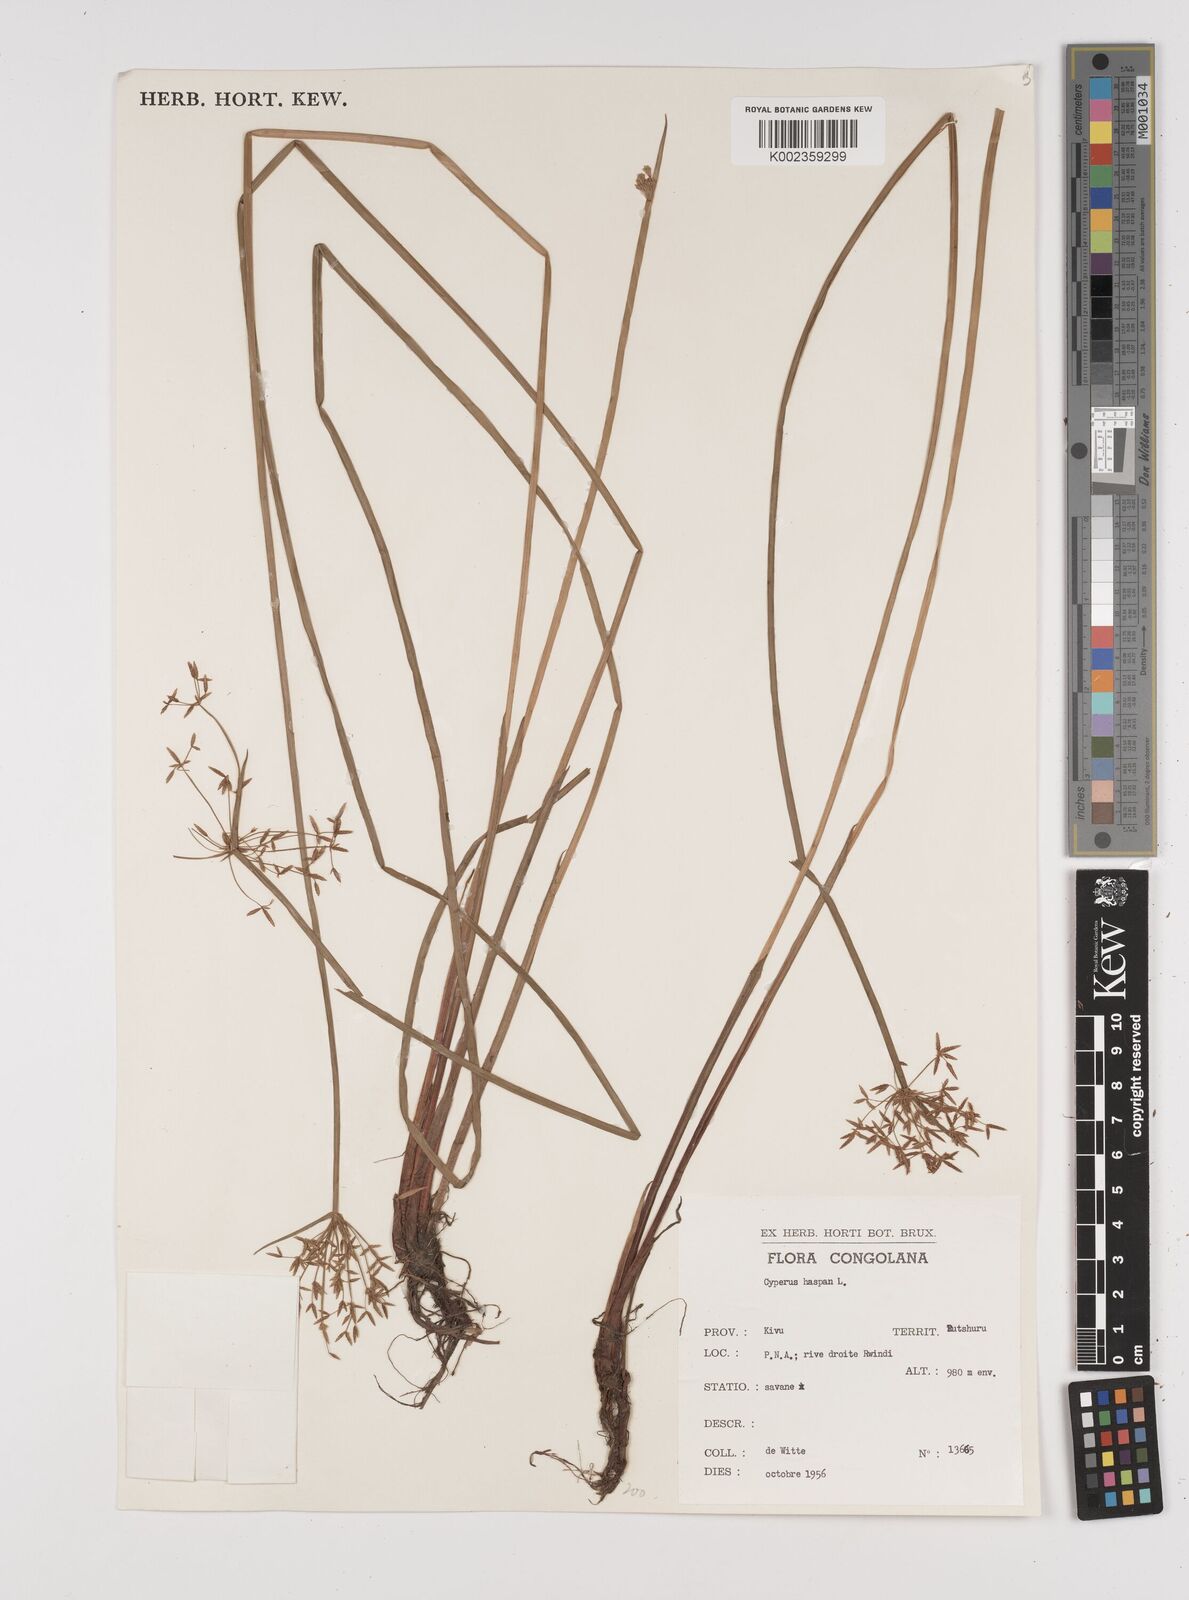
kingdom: Plantae
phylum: Tracheophyta
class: Liliopsida
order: Poales
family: Cyperaceae
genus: Cyperus
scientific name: Cyperus haspan
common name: Haspan flatsedge
